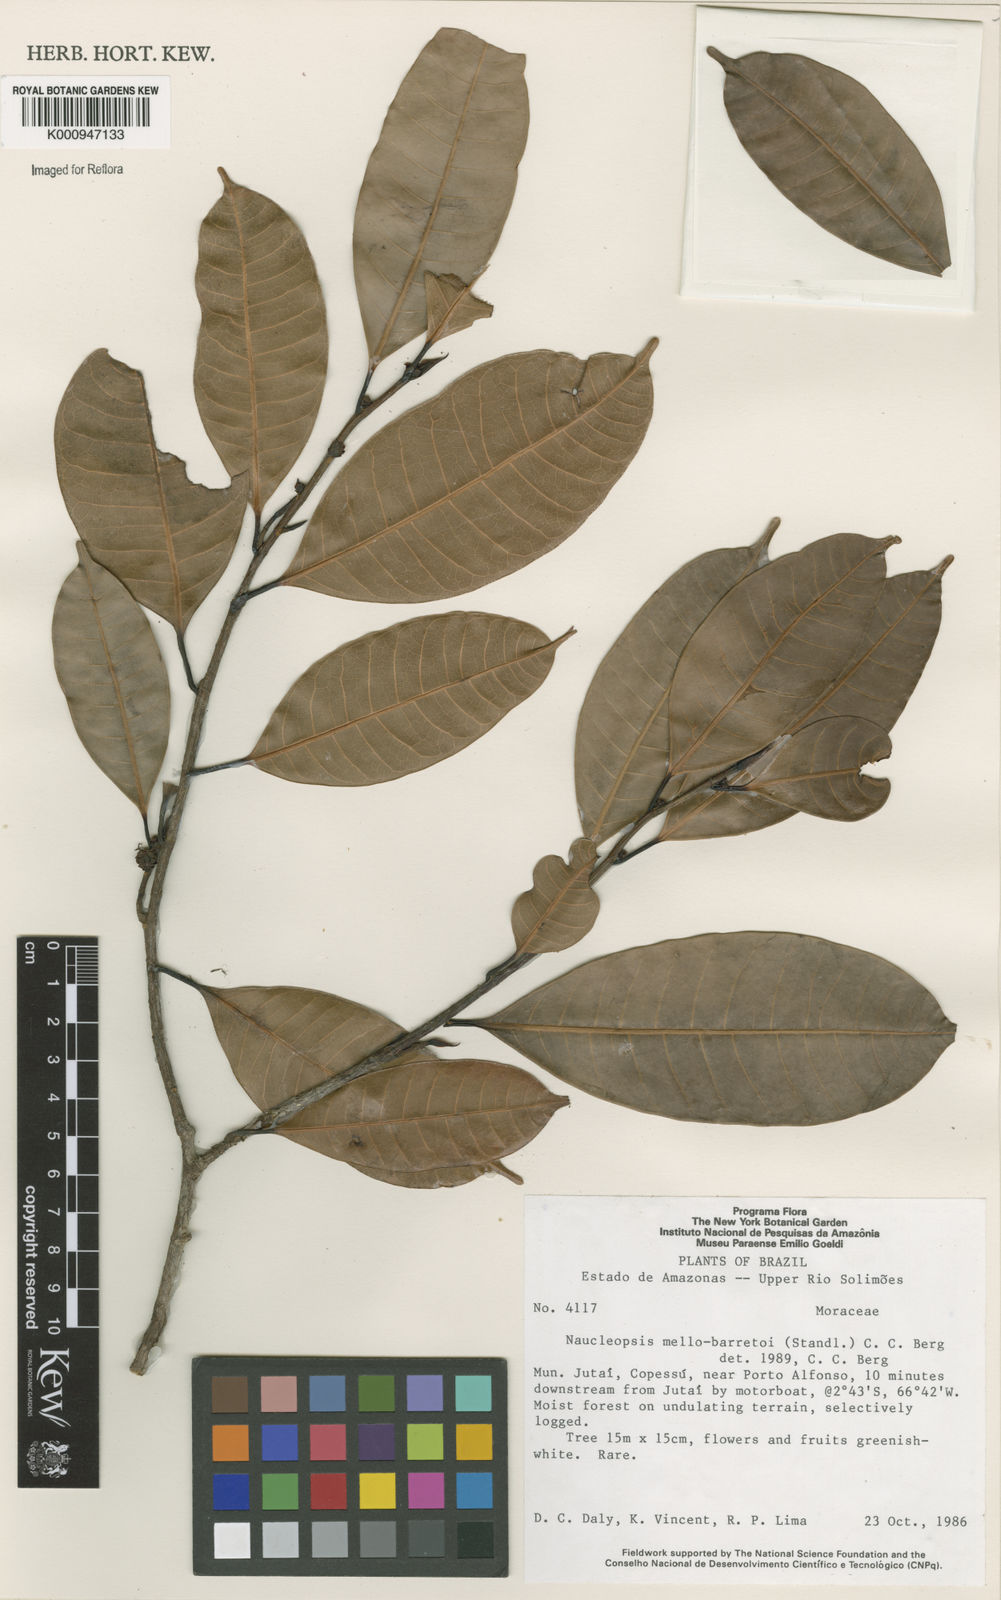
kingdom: Plantae
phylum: Tracheophyta
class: Magnoliopsida
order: Rosales
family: Moraceae
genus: Naucleopsis
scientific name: Naucleopsis oblongifolia
